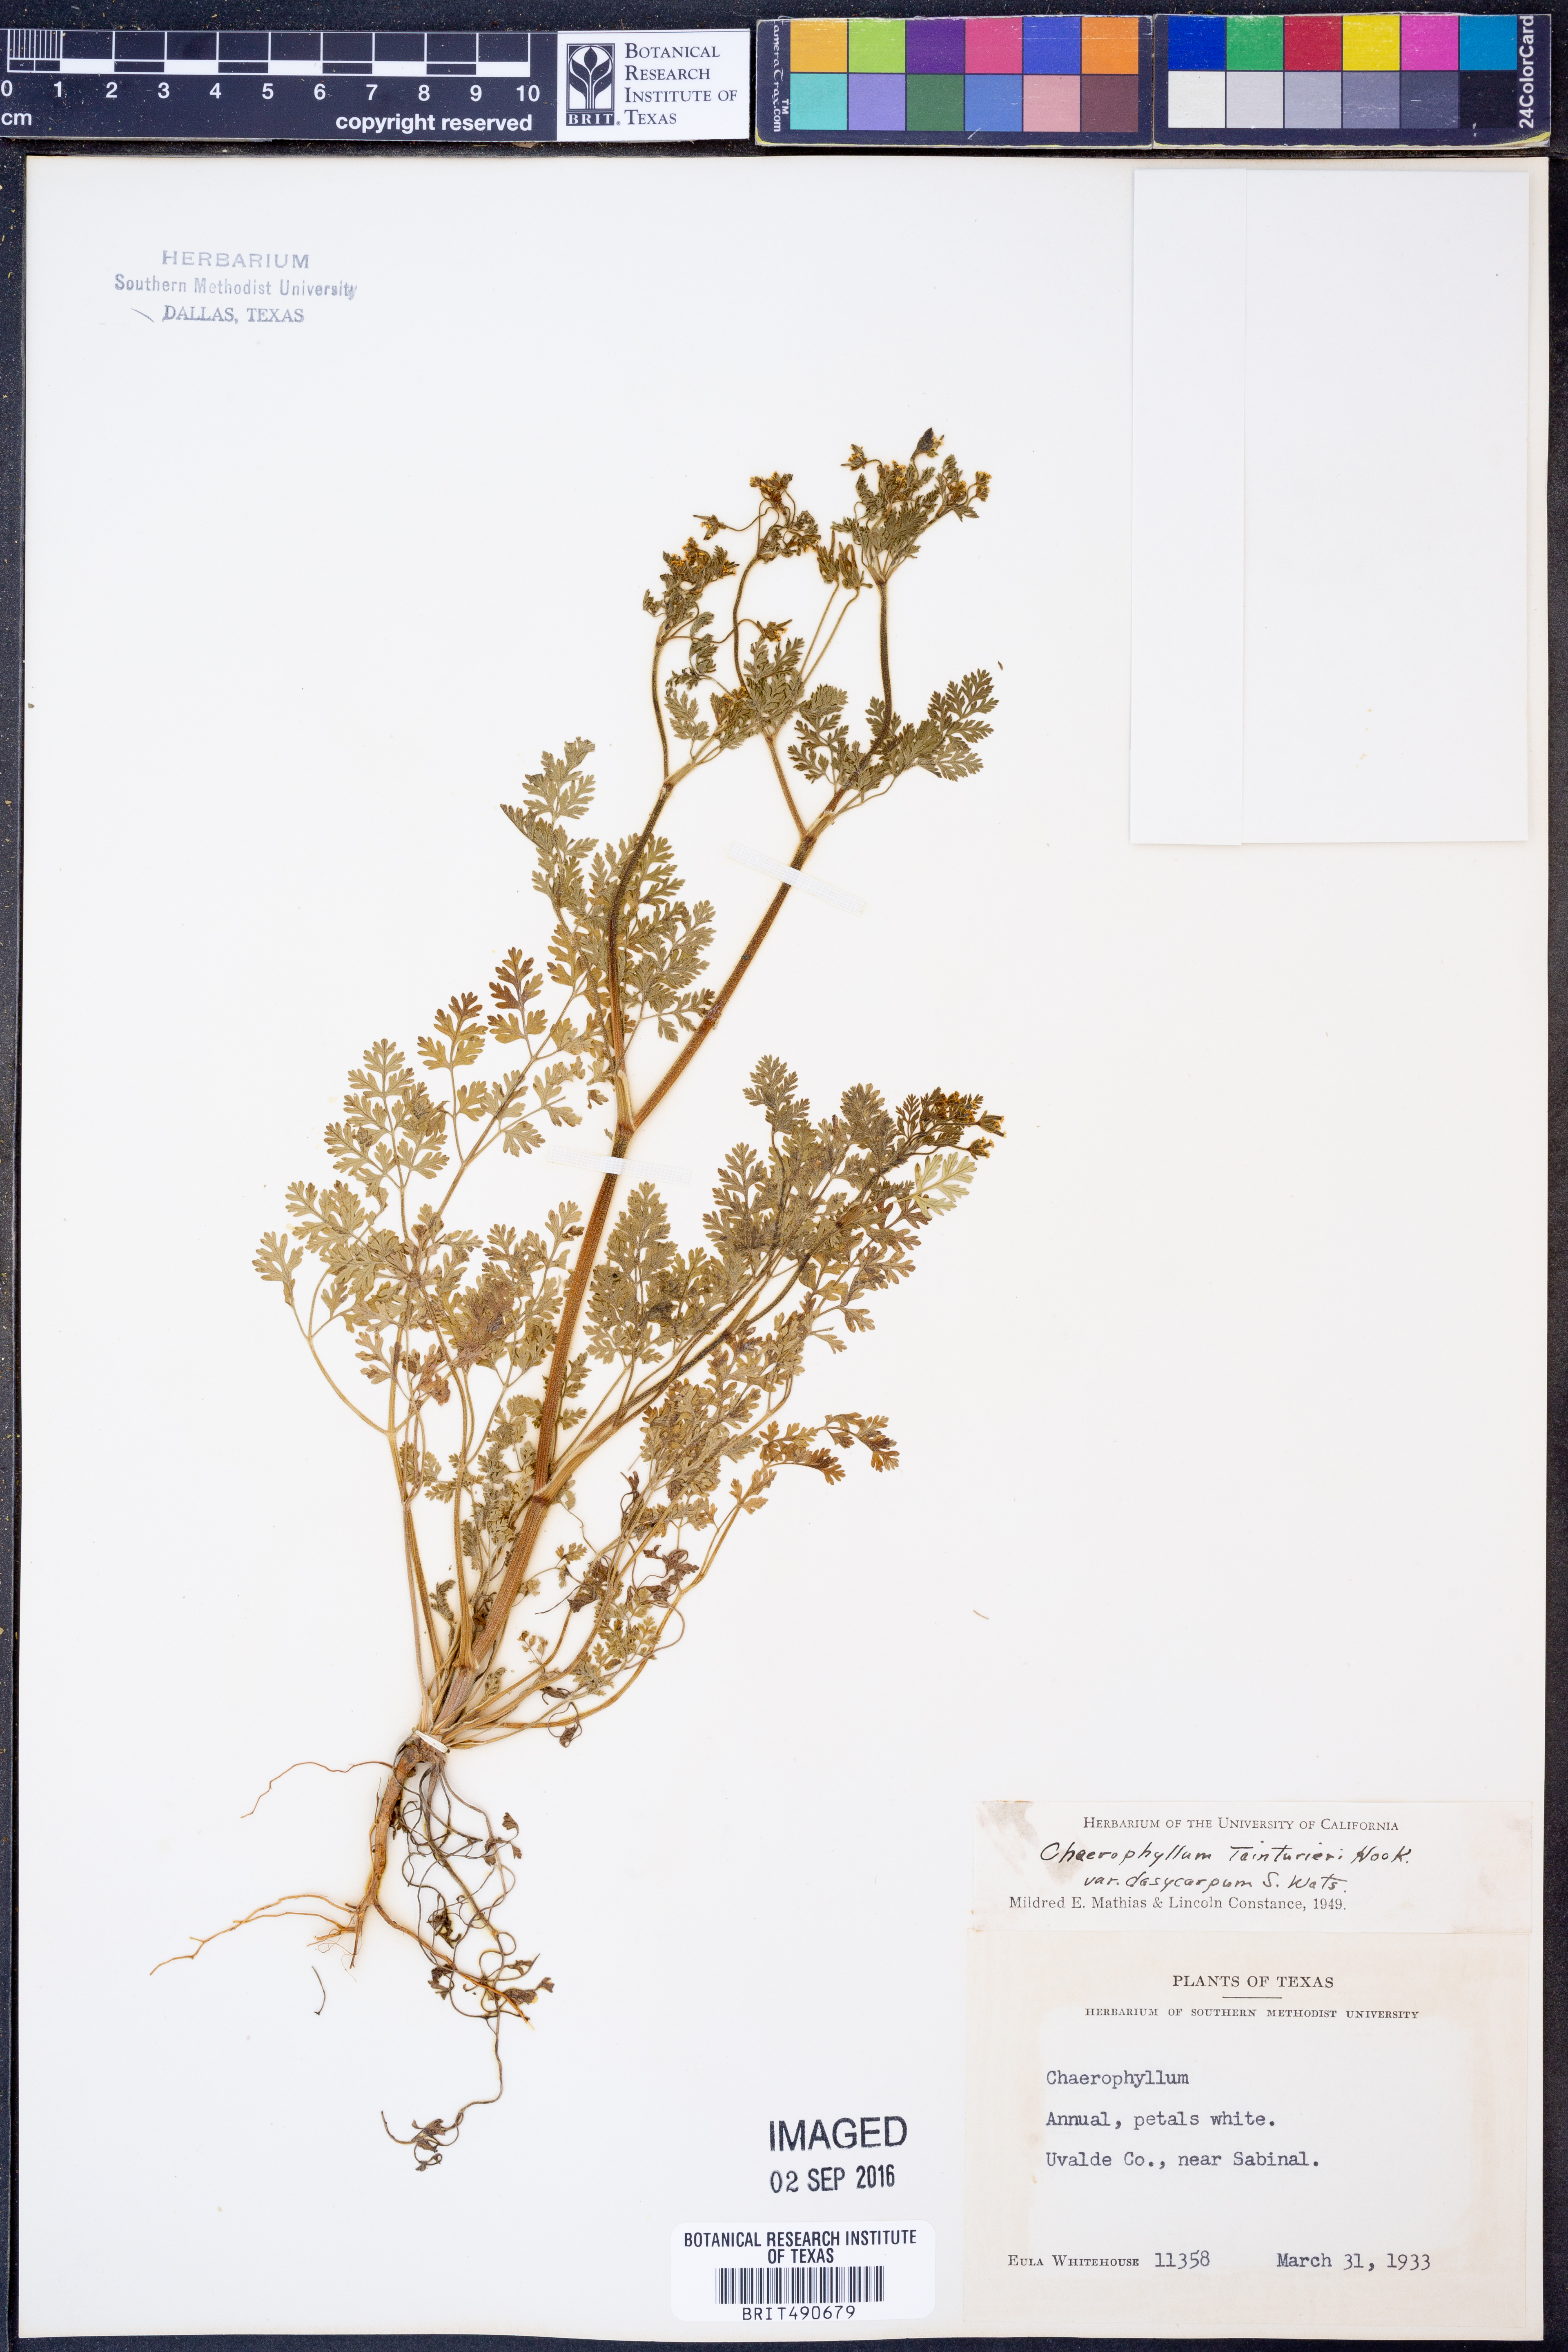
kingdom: Plantae
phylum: Tracheophyta
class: Magnoliopsida
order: Apiales
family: Apiaceae
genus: Chaerophyllum
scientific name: Chaerophyllum dasycarpum
